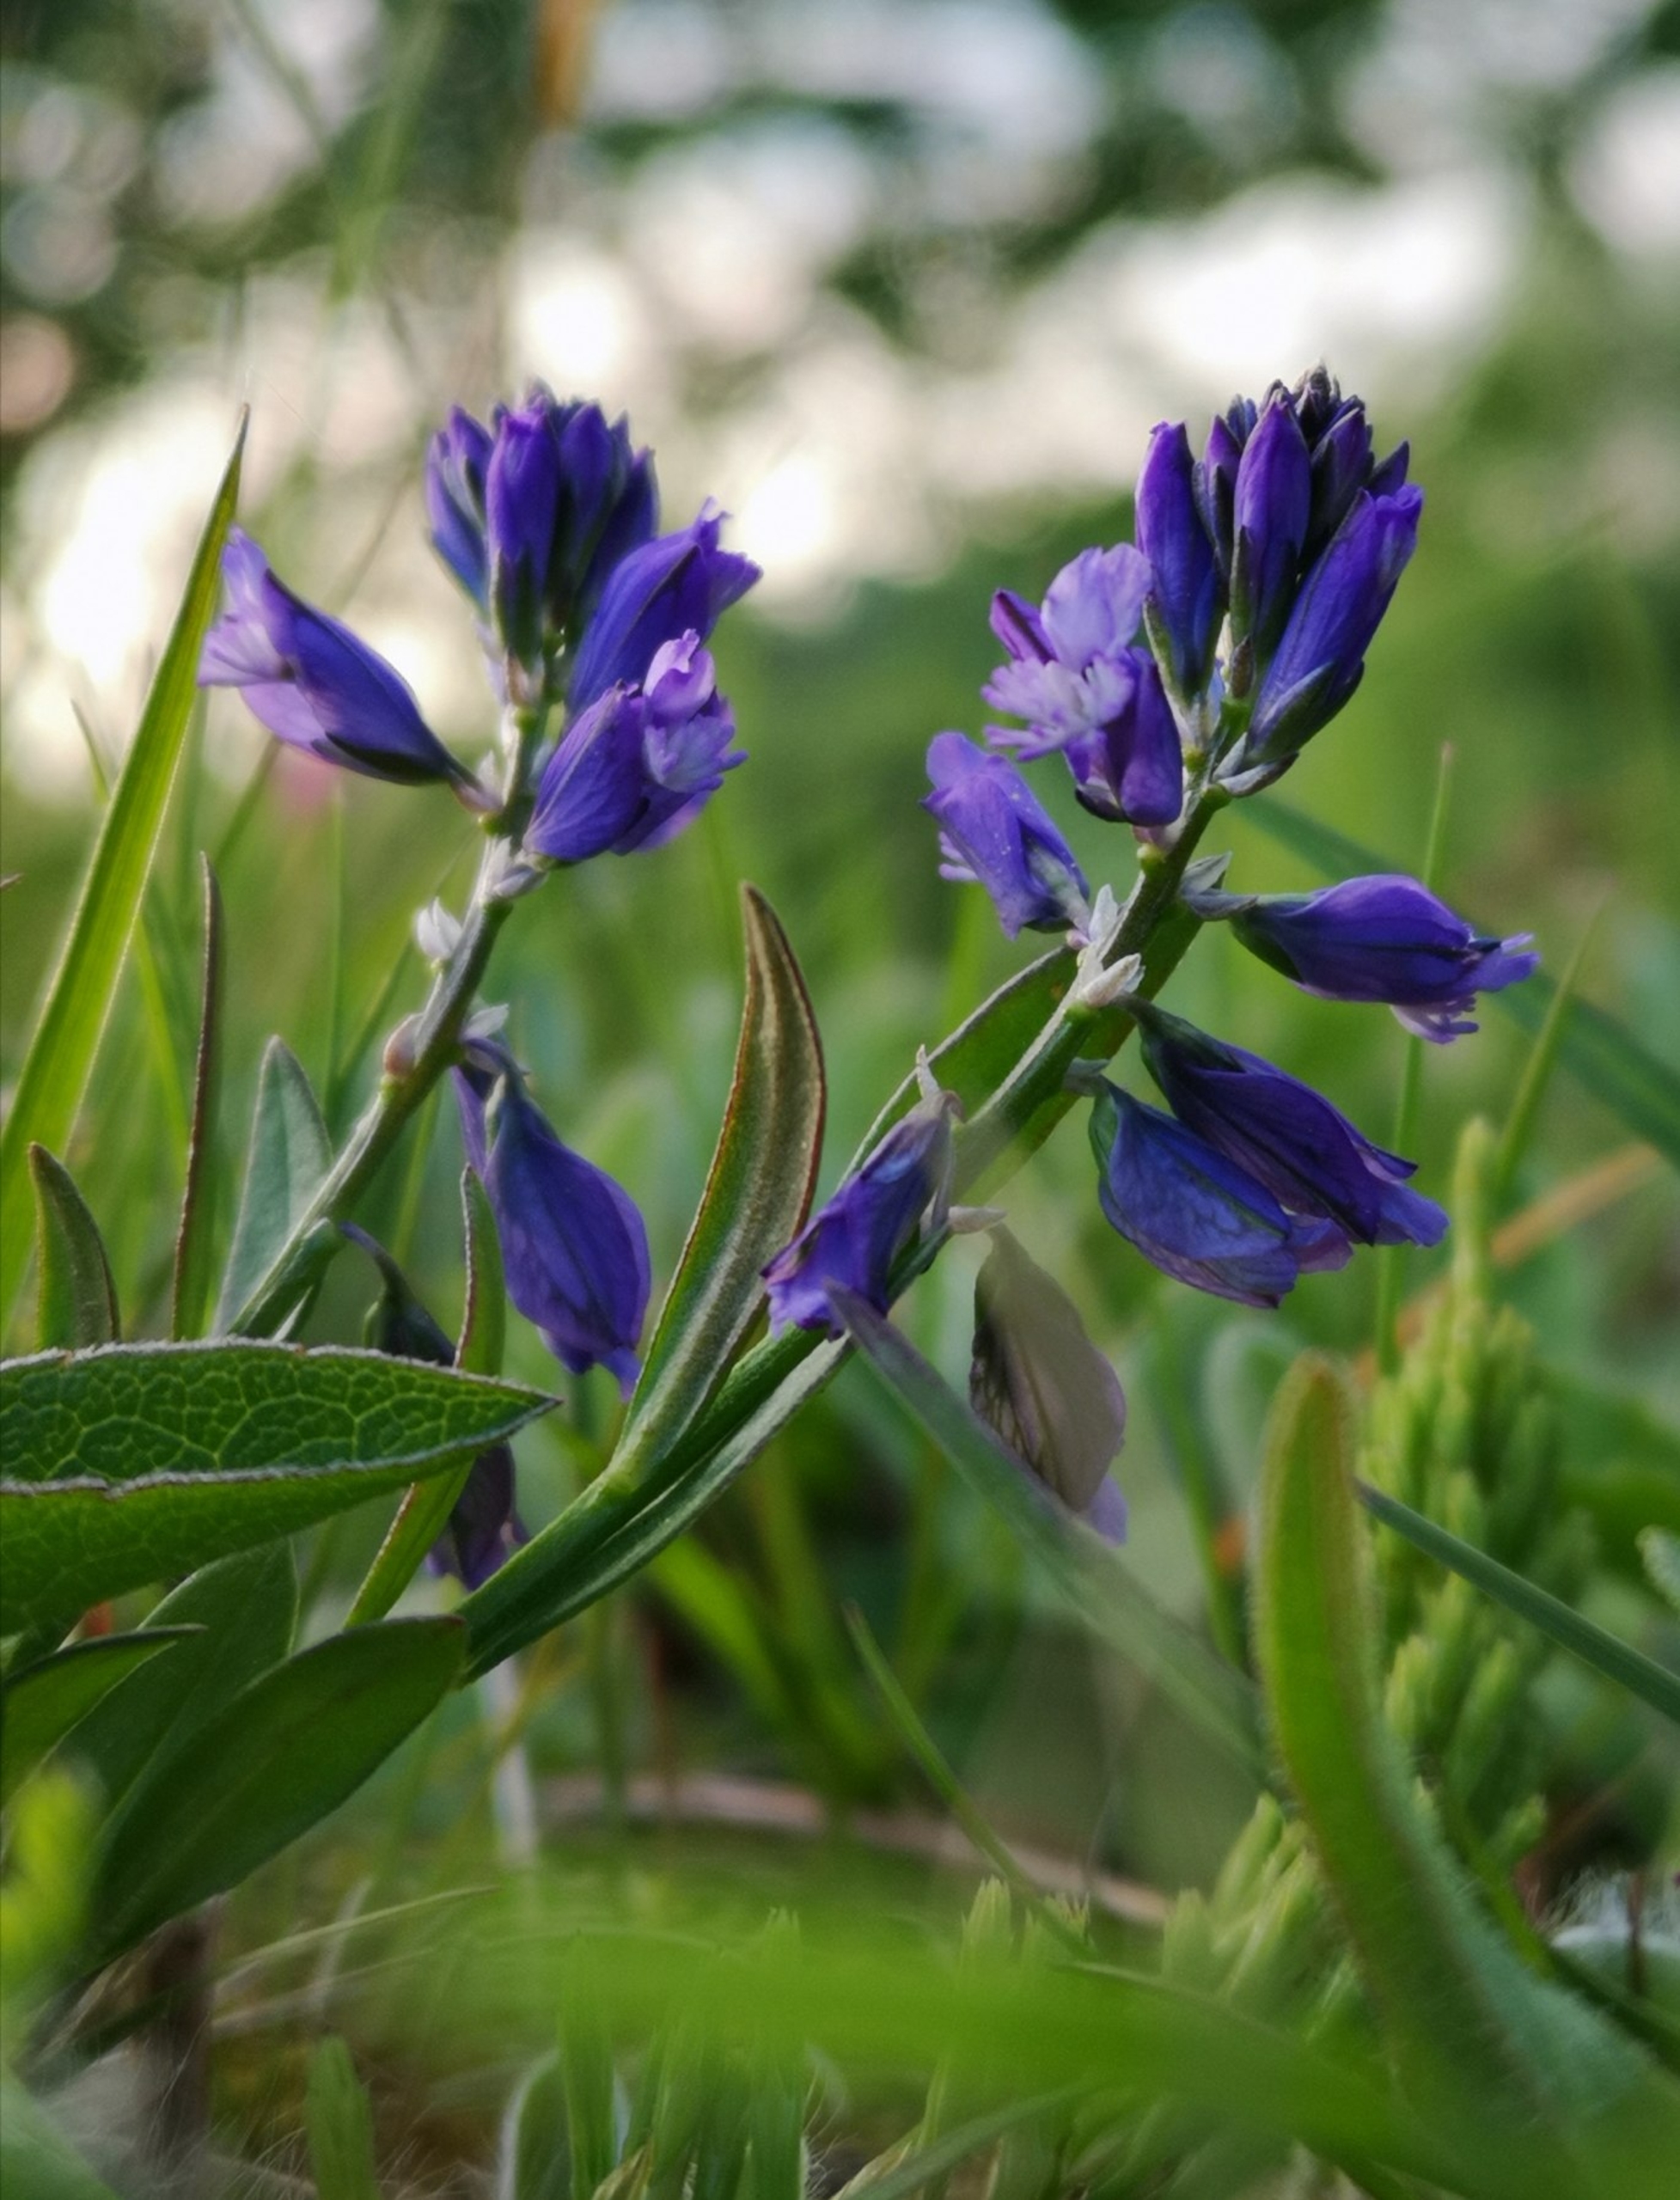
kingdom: Plantae
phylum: Tracheophyta
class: Magnoliopsida
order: Fabales
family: Polygalaceae
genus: Polygala
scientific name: Polygala vulgaris
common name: Almindelig mælkeurt
